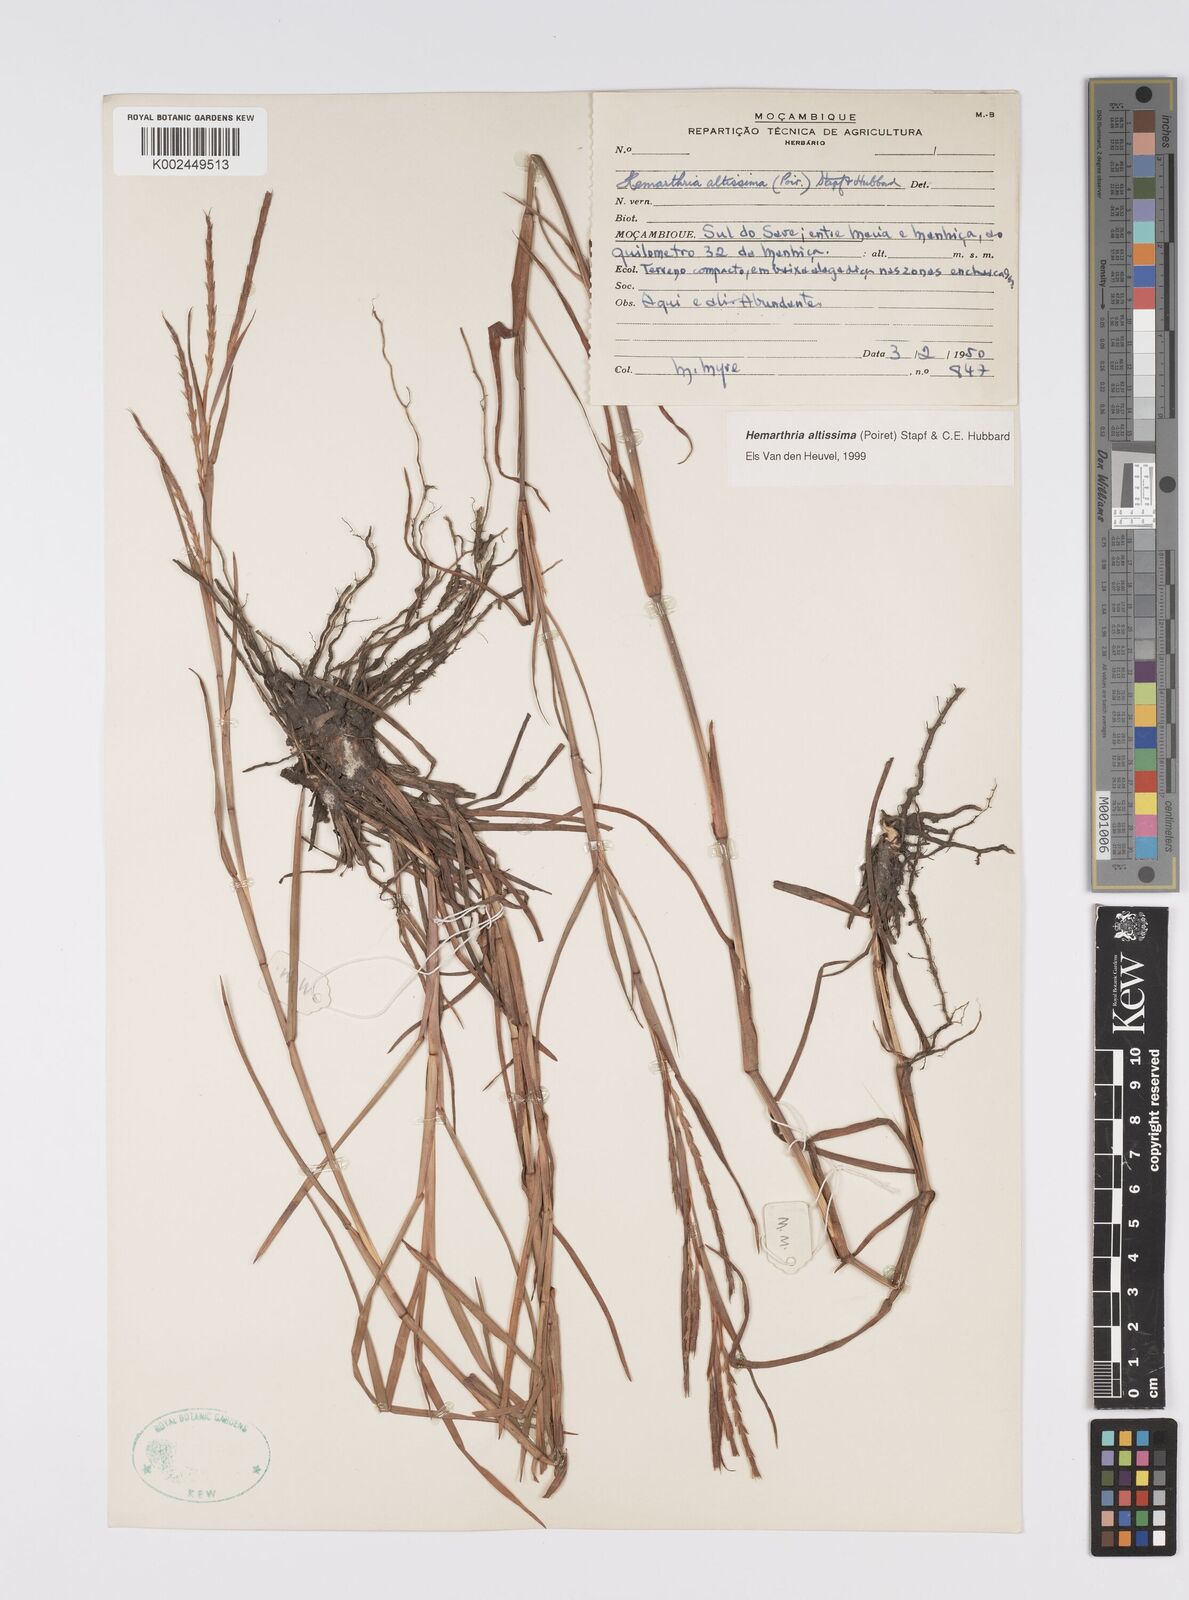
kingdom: Plantae
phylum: Tracheophyta
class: Liliopsida
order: Poales
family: Poaceae
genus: Hemarthria
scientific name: Hemarthria altissima
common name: African jointgrass
